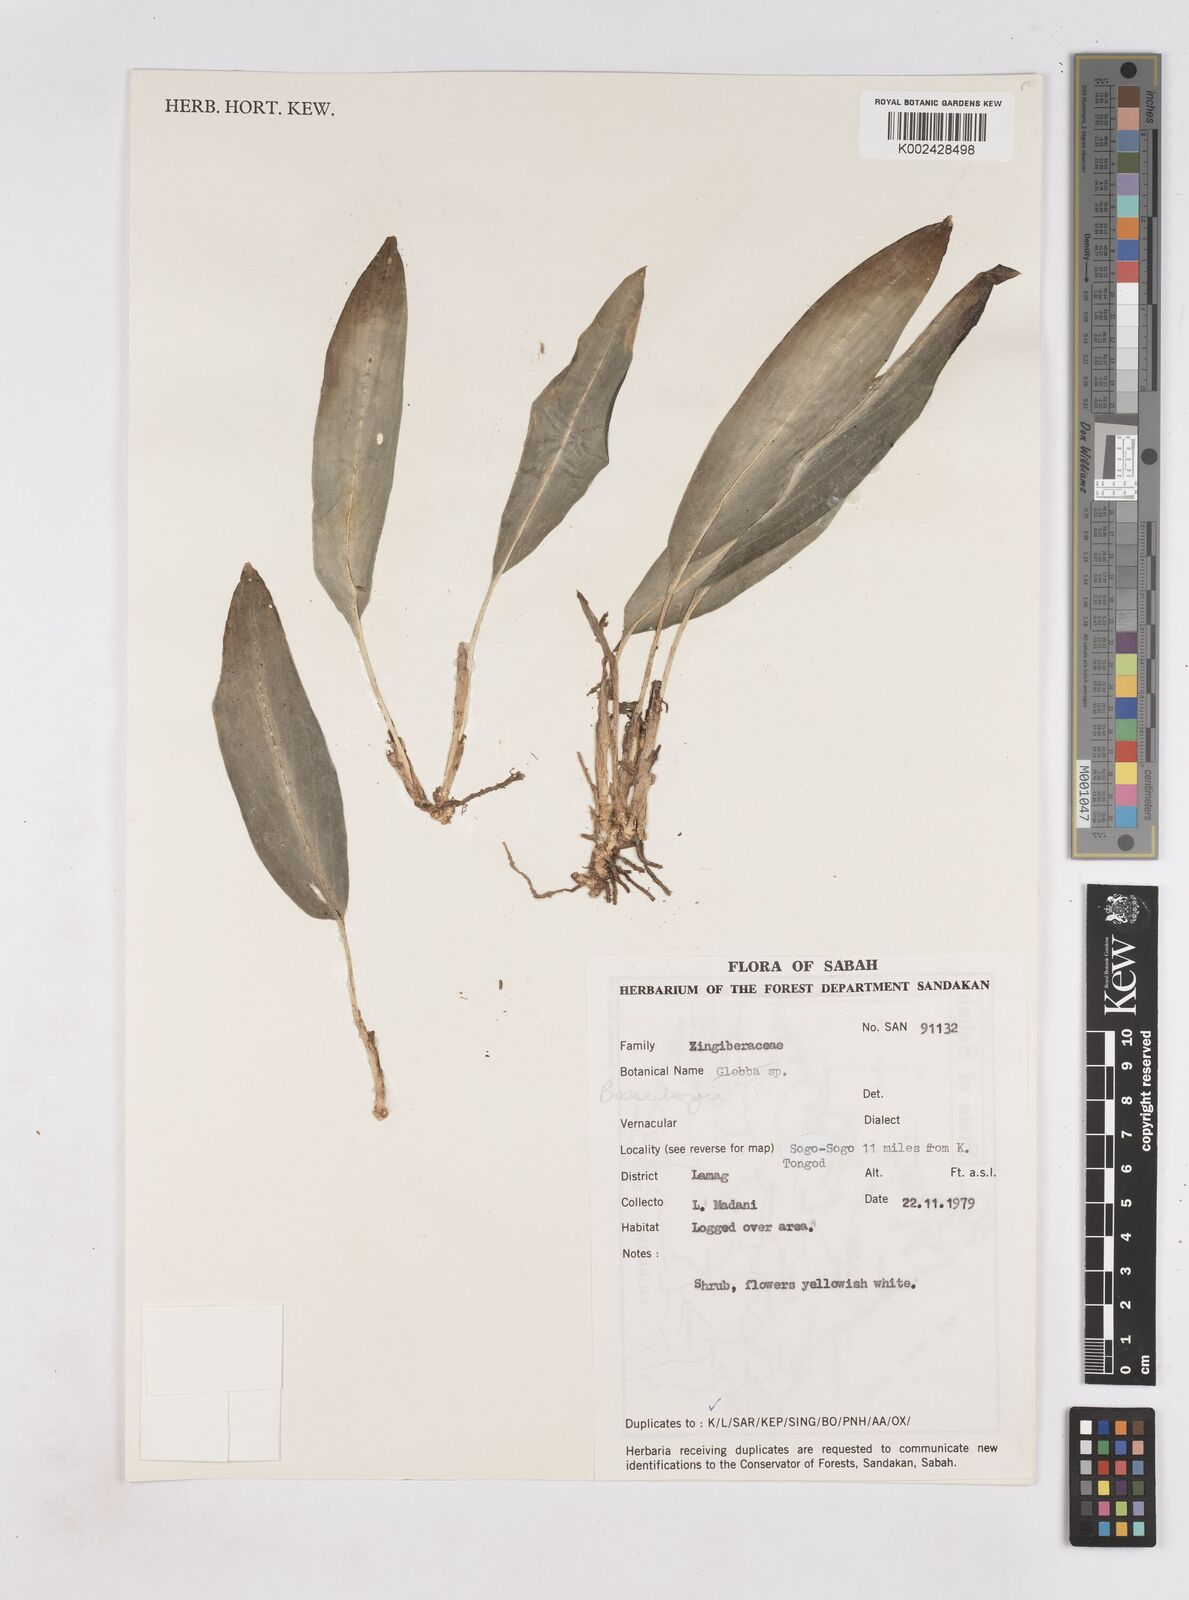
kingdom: Plantae
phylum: Tracheophyta
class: Liliopsida
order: Zingiberales
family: Zingiberaceae
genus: Boesenbergia
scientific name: Boesenbergia
